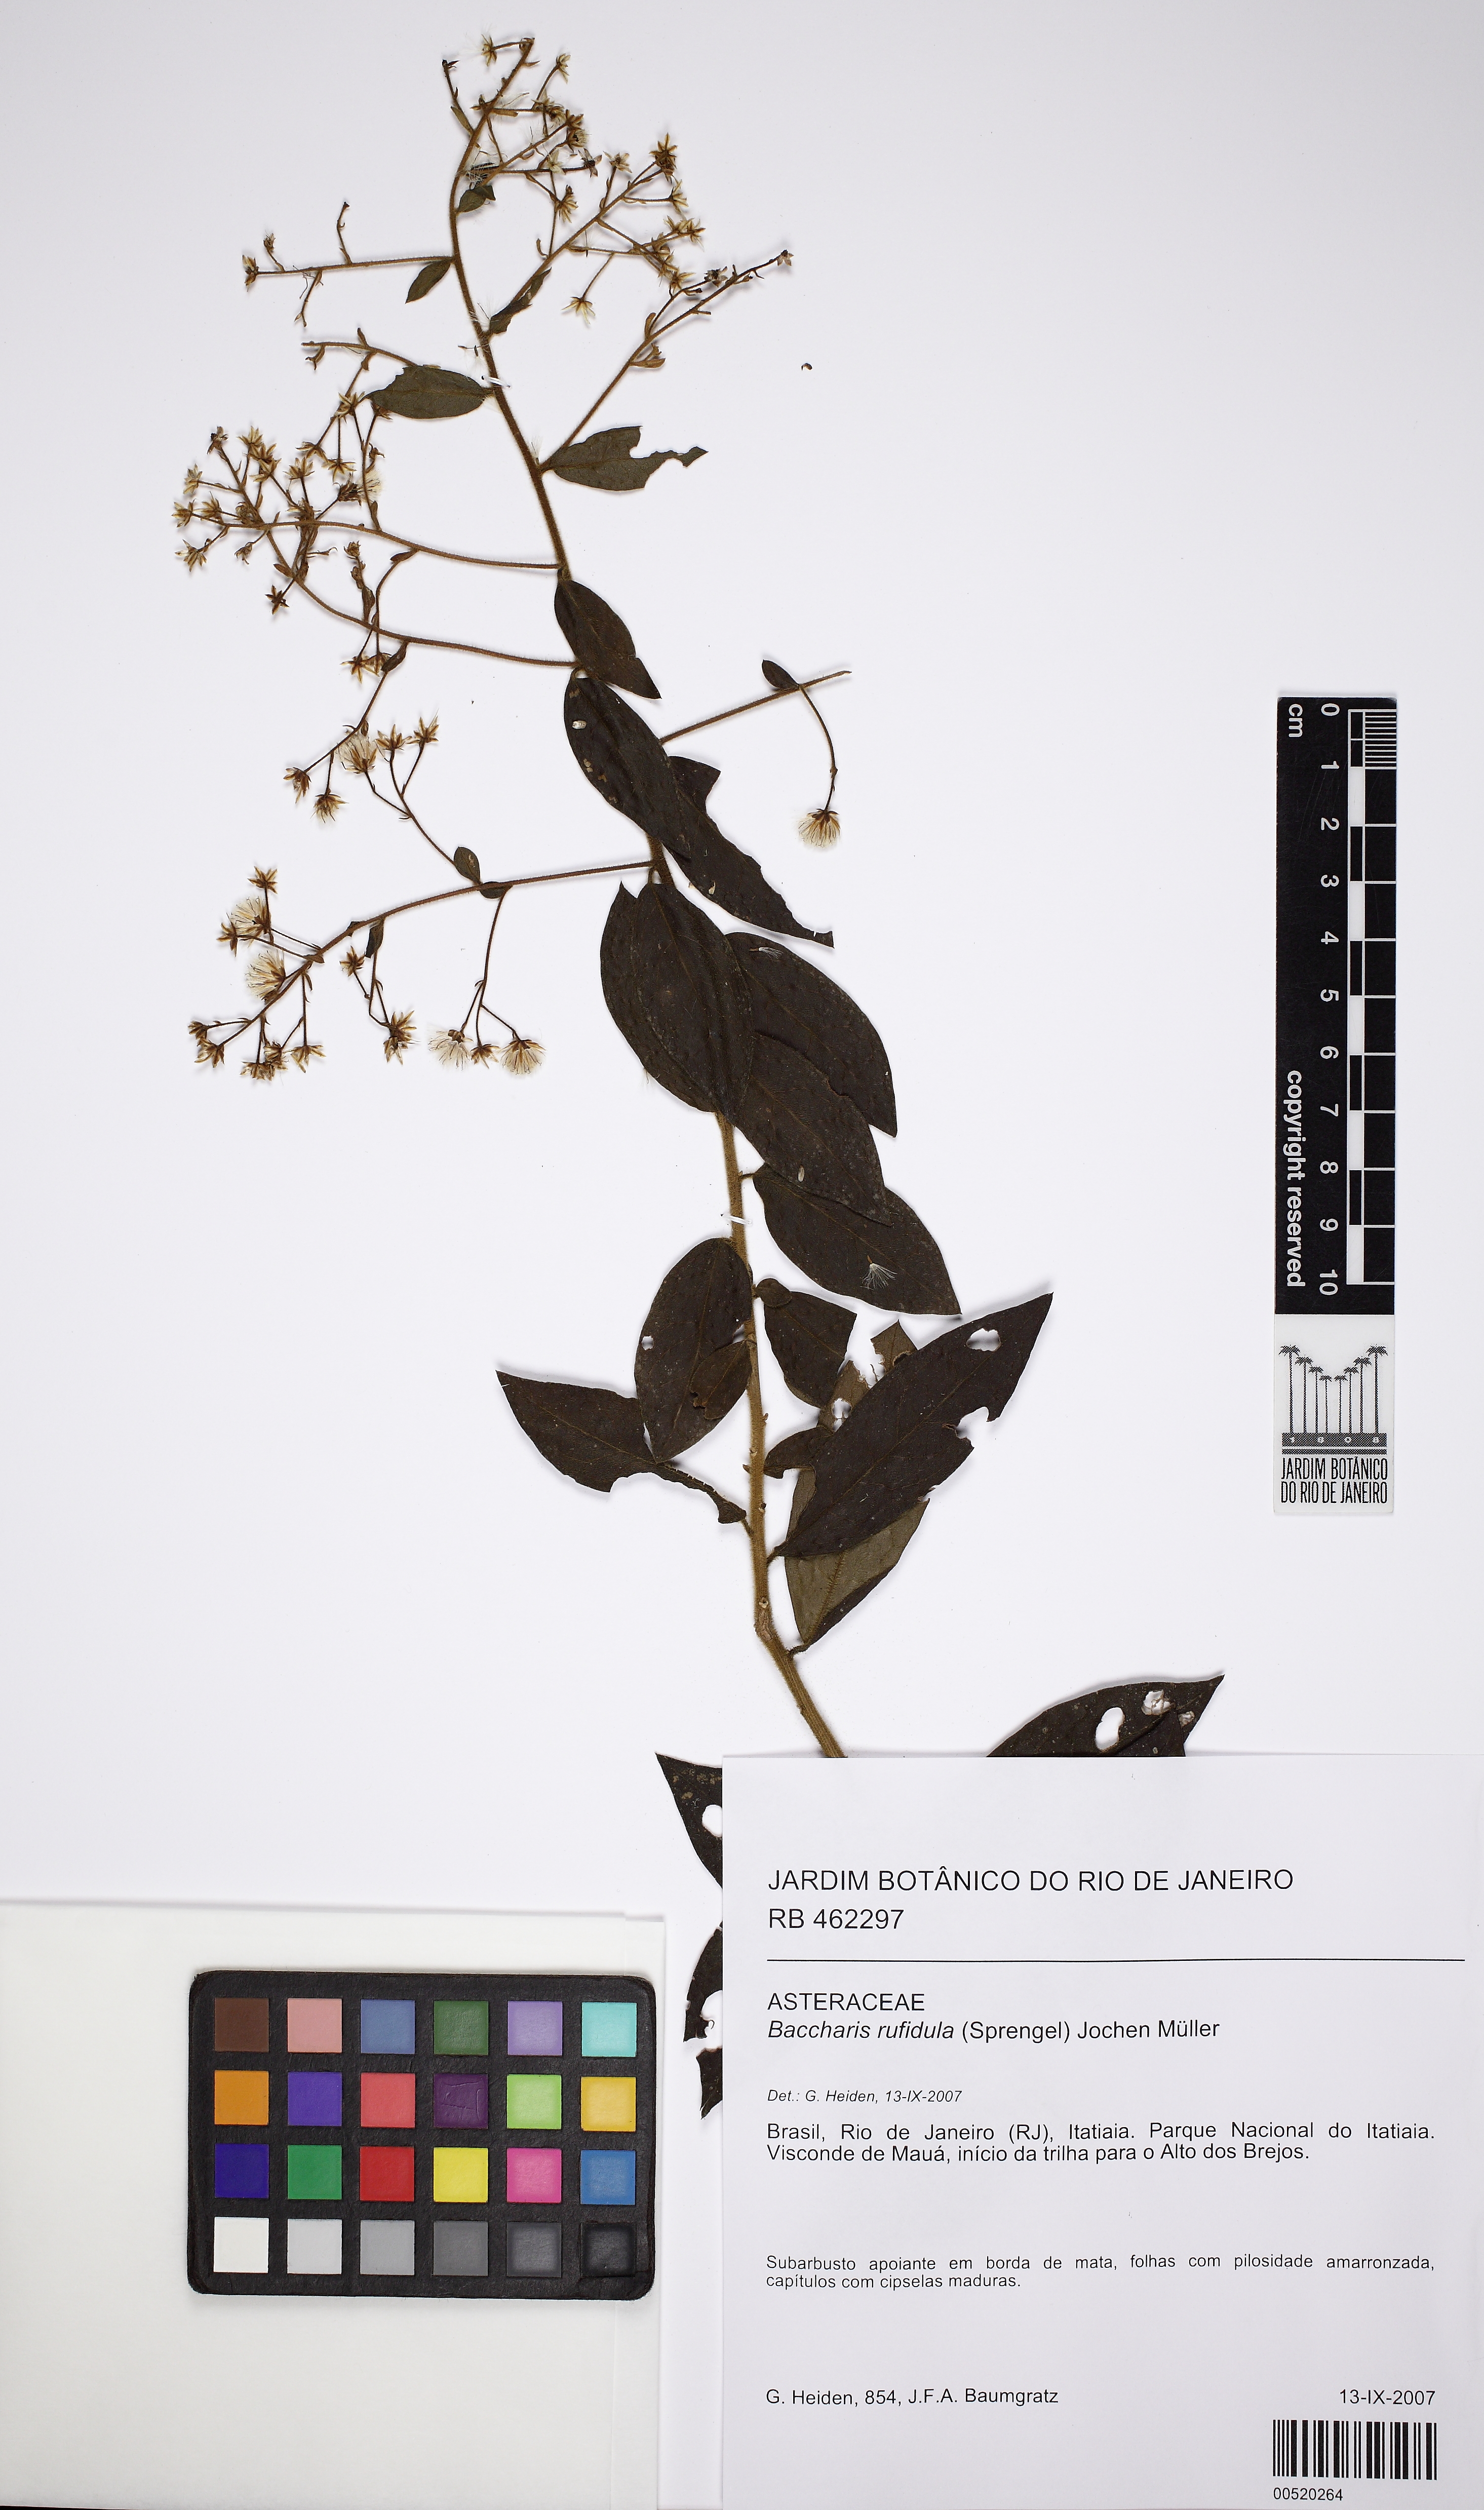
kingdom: Plantae
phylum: Tracheophyta
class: Magnoliopsida
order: Asterales
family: Asteraceae
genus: Baccharis
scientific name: Baccharis rufidula
